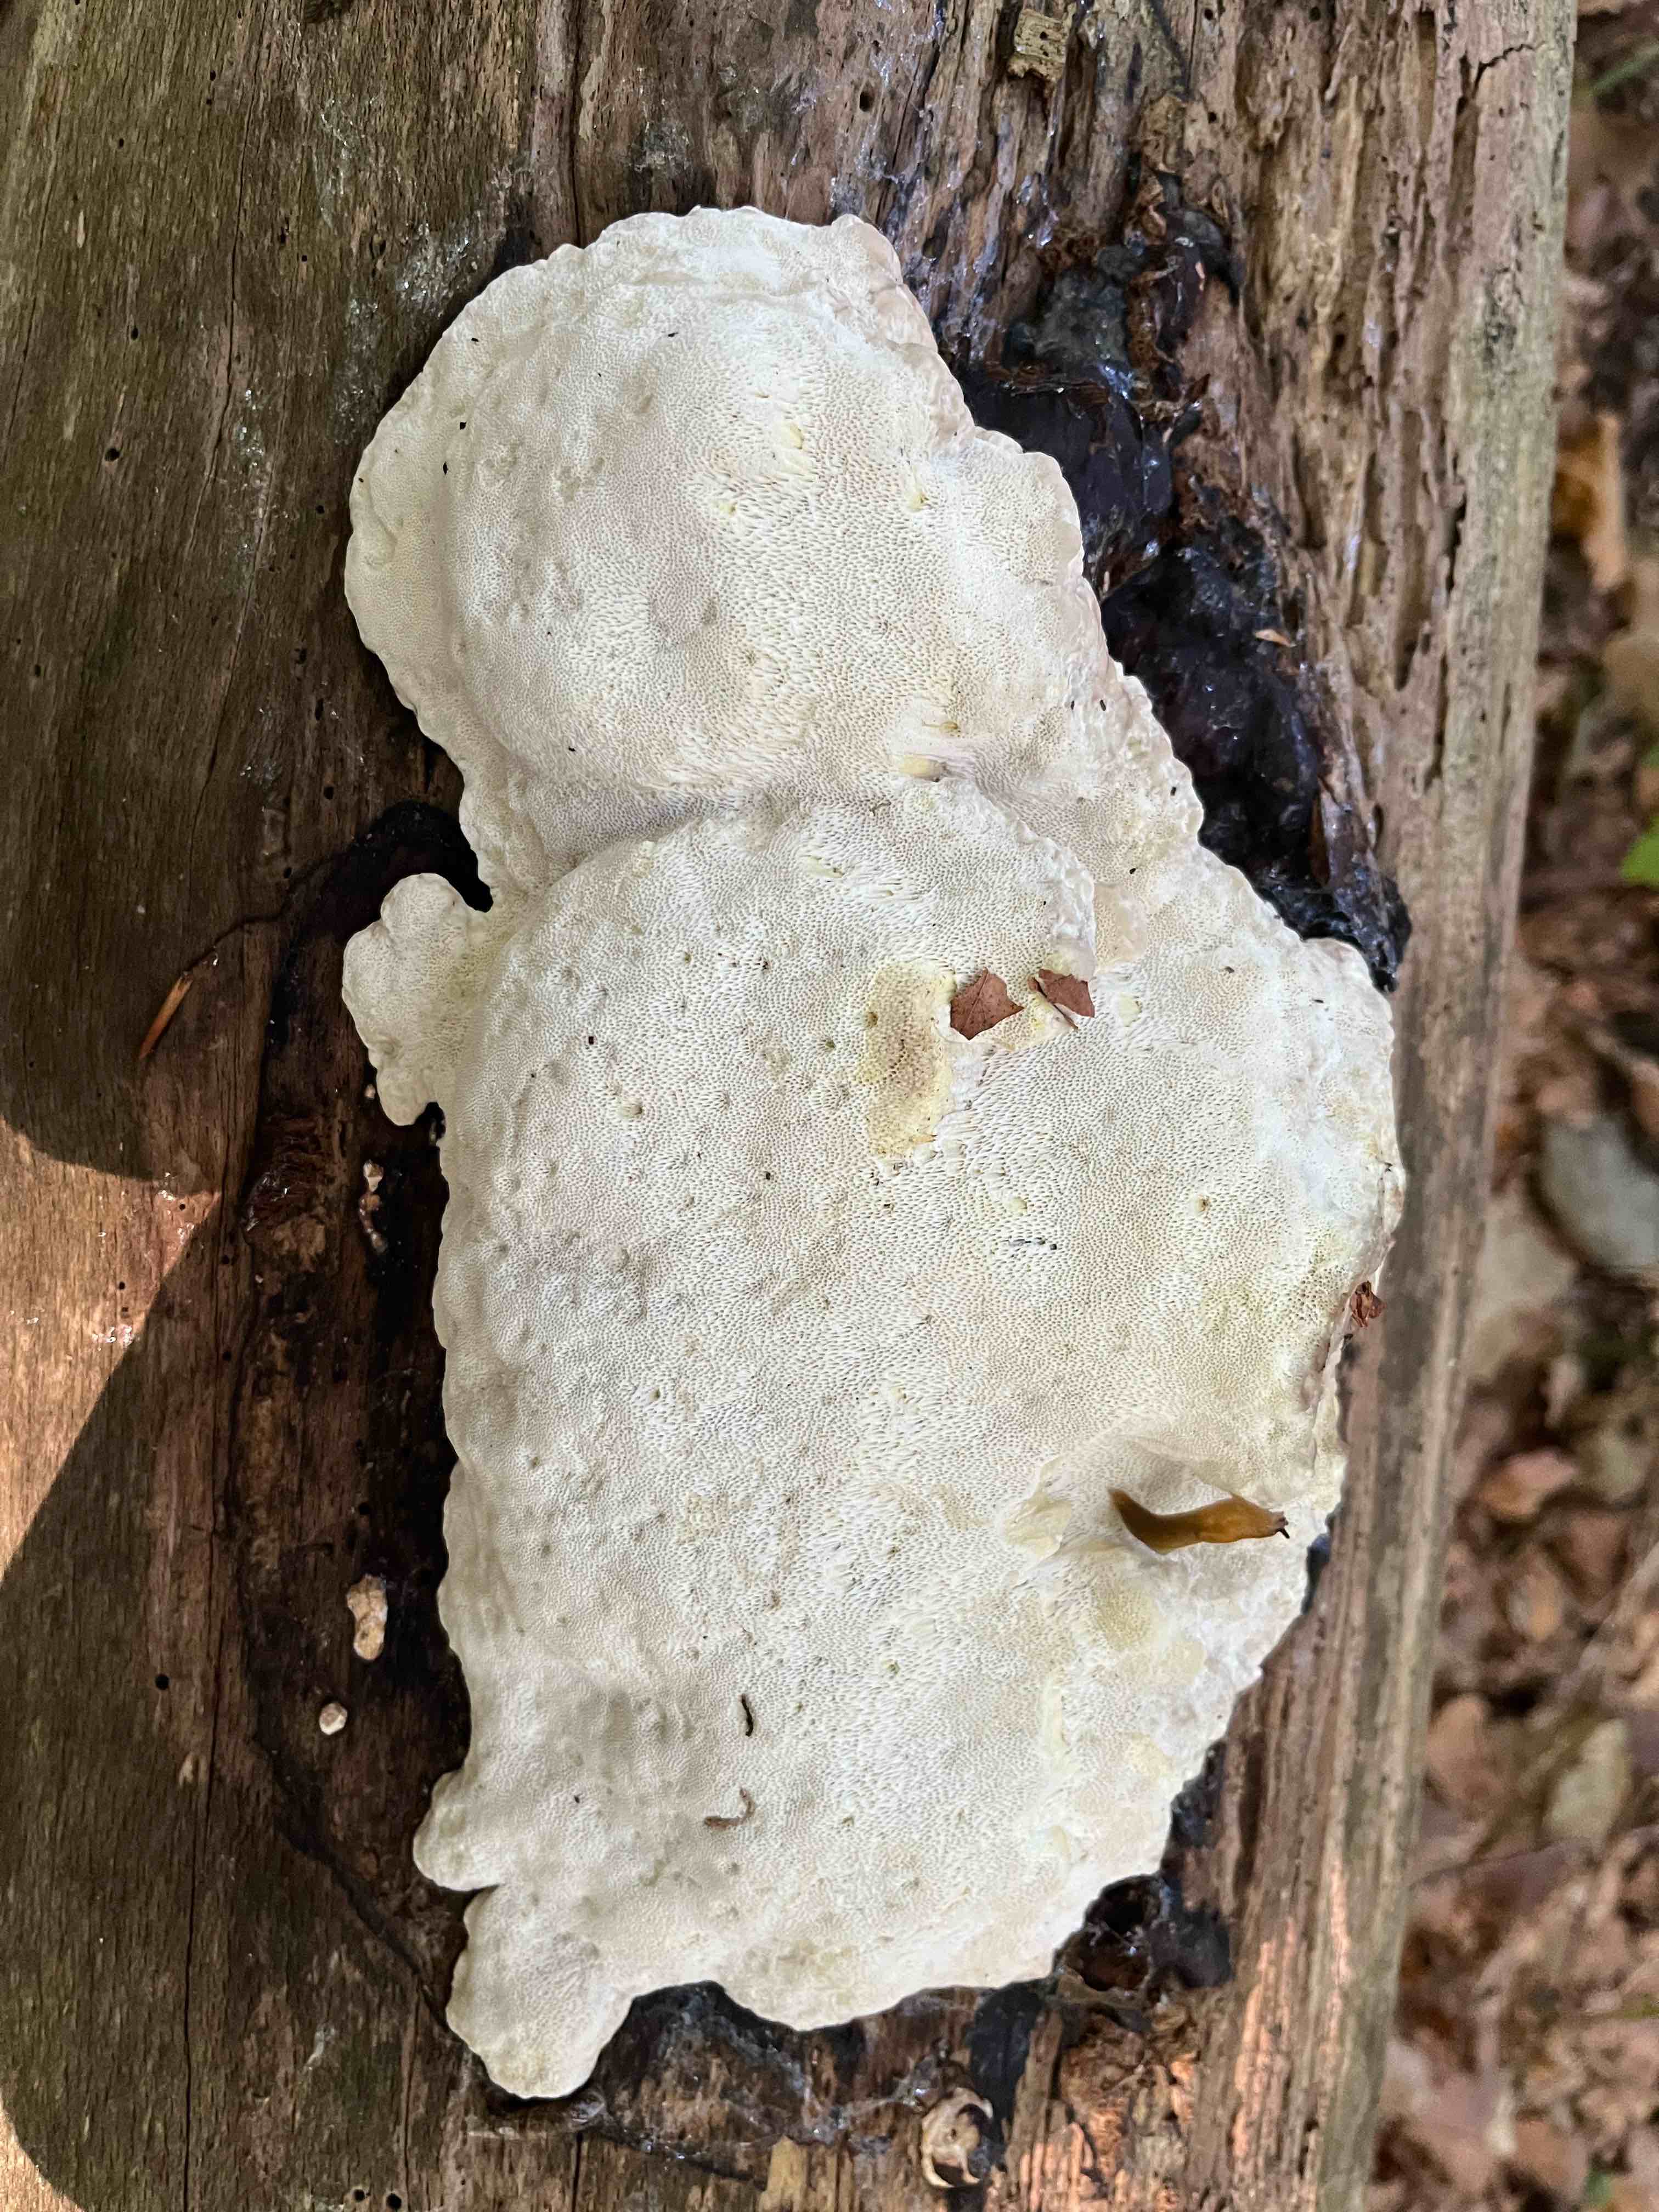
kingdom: Fungi
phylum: Basidiomycota
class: Agaricomycetes
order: Polyporales
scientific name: Polyporales
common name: poresvampordenen
